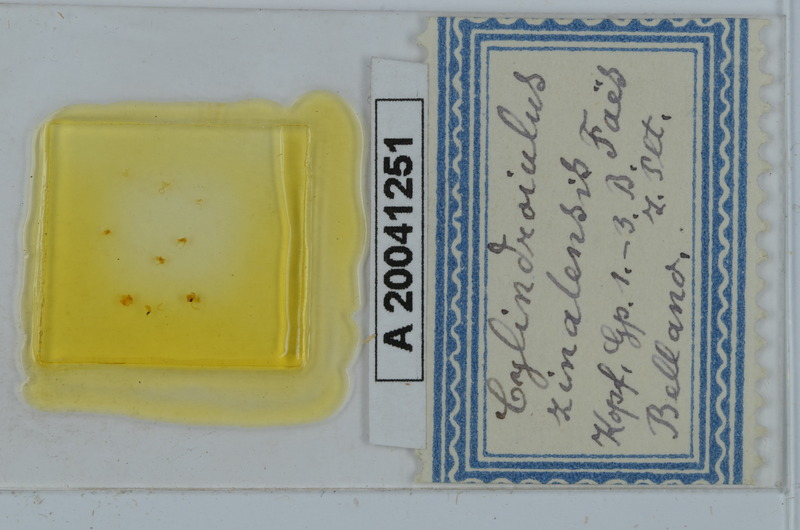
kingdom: Animalia
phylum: Arthropoda
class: Diplopoda
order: Julida
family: Julidae
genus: Cylindroiulus
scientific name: Cylindroiulus zinalensis
